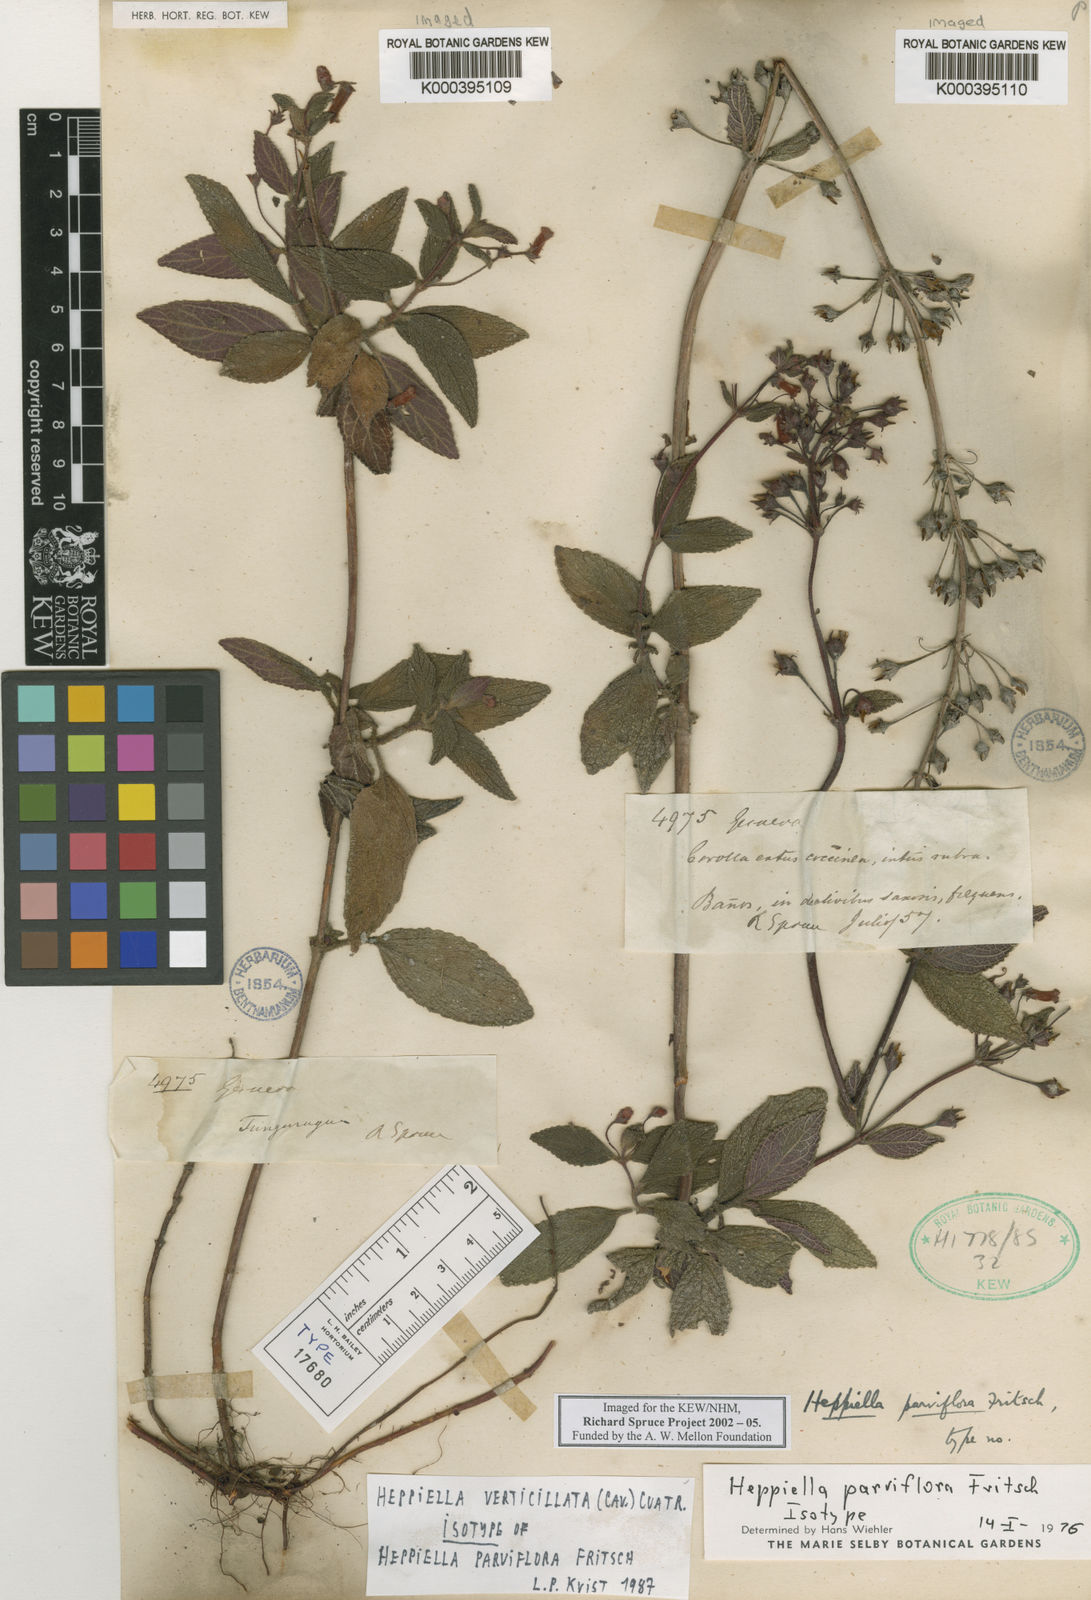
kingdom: Plantae
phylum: Tracheophyta
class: Magnoliopsida
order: Lamiales
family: Gesneriaceae
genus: Heppiella
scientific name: Heppiella verticillata
